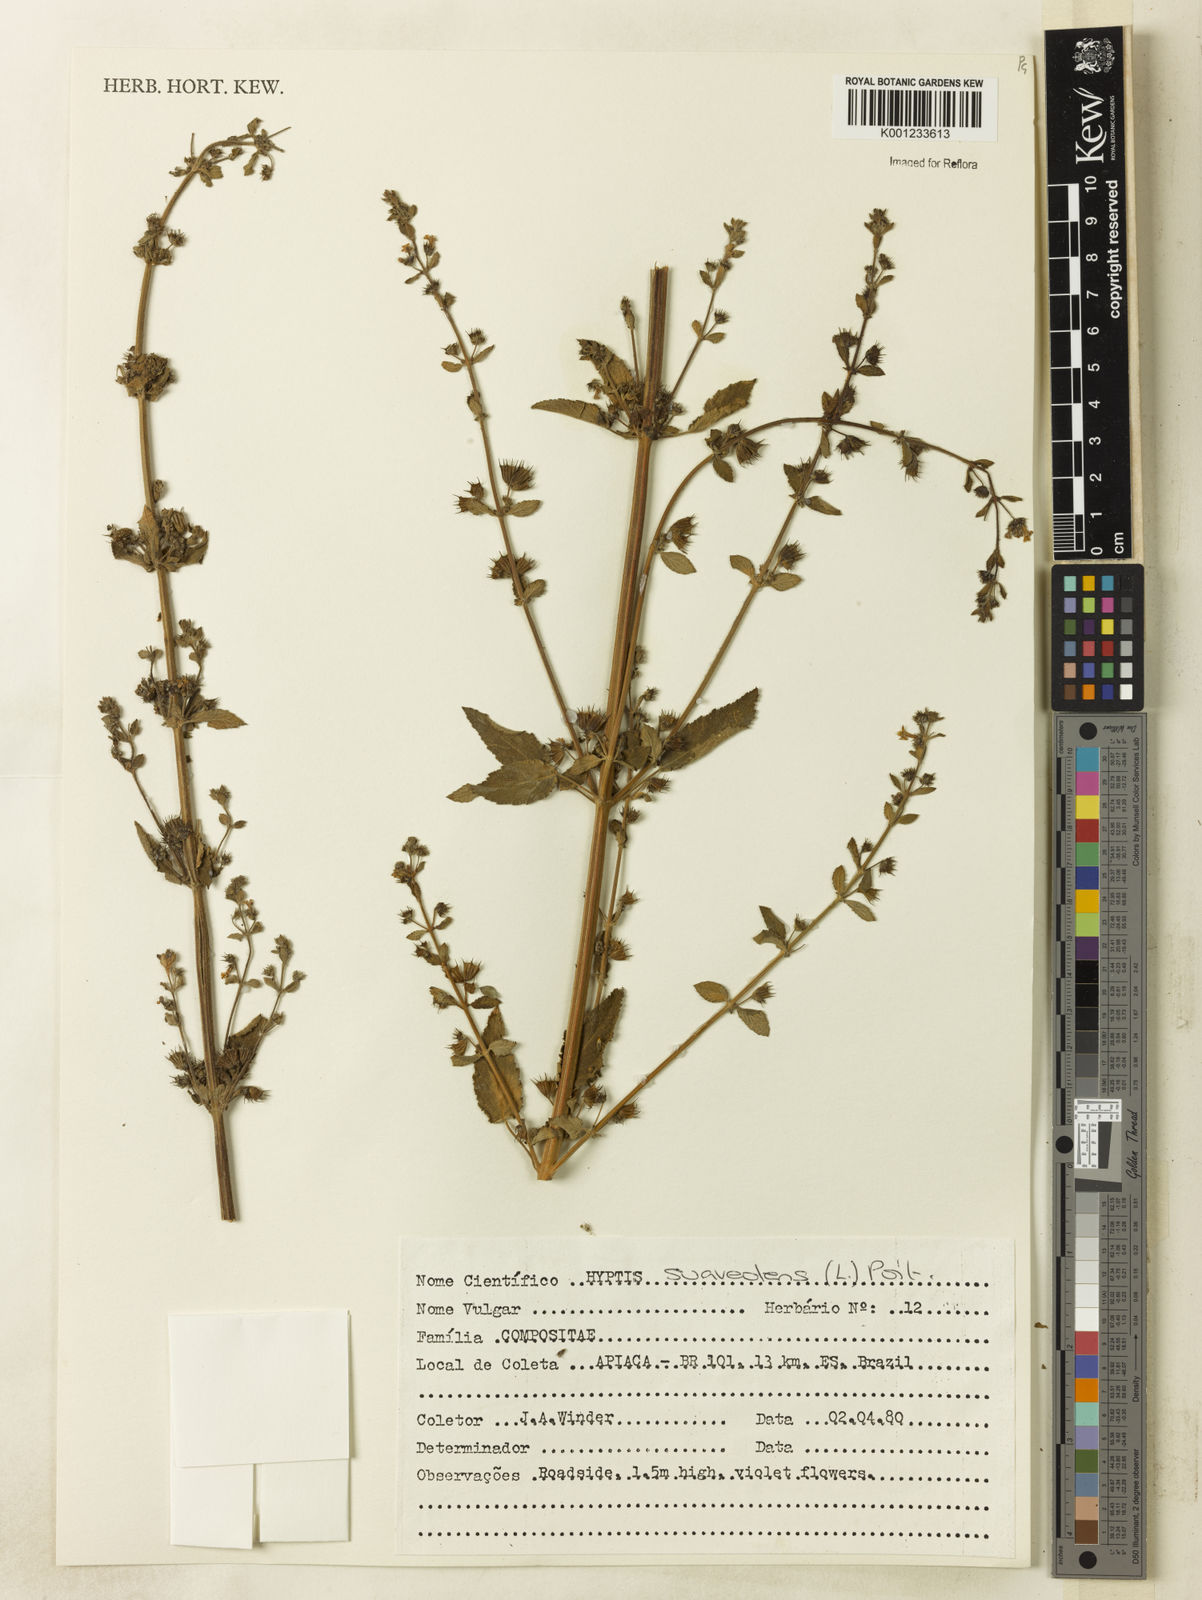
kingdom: Plantae
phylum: Tracheophyta
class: Magnoliopsida
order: Lamiales
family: Lamiaceae
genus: Mesosphaerum
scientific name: Mesosphaerum suaveolens
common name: Pignut
